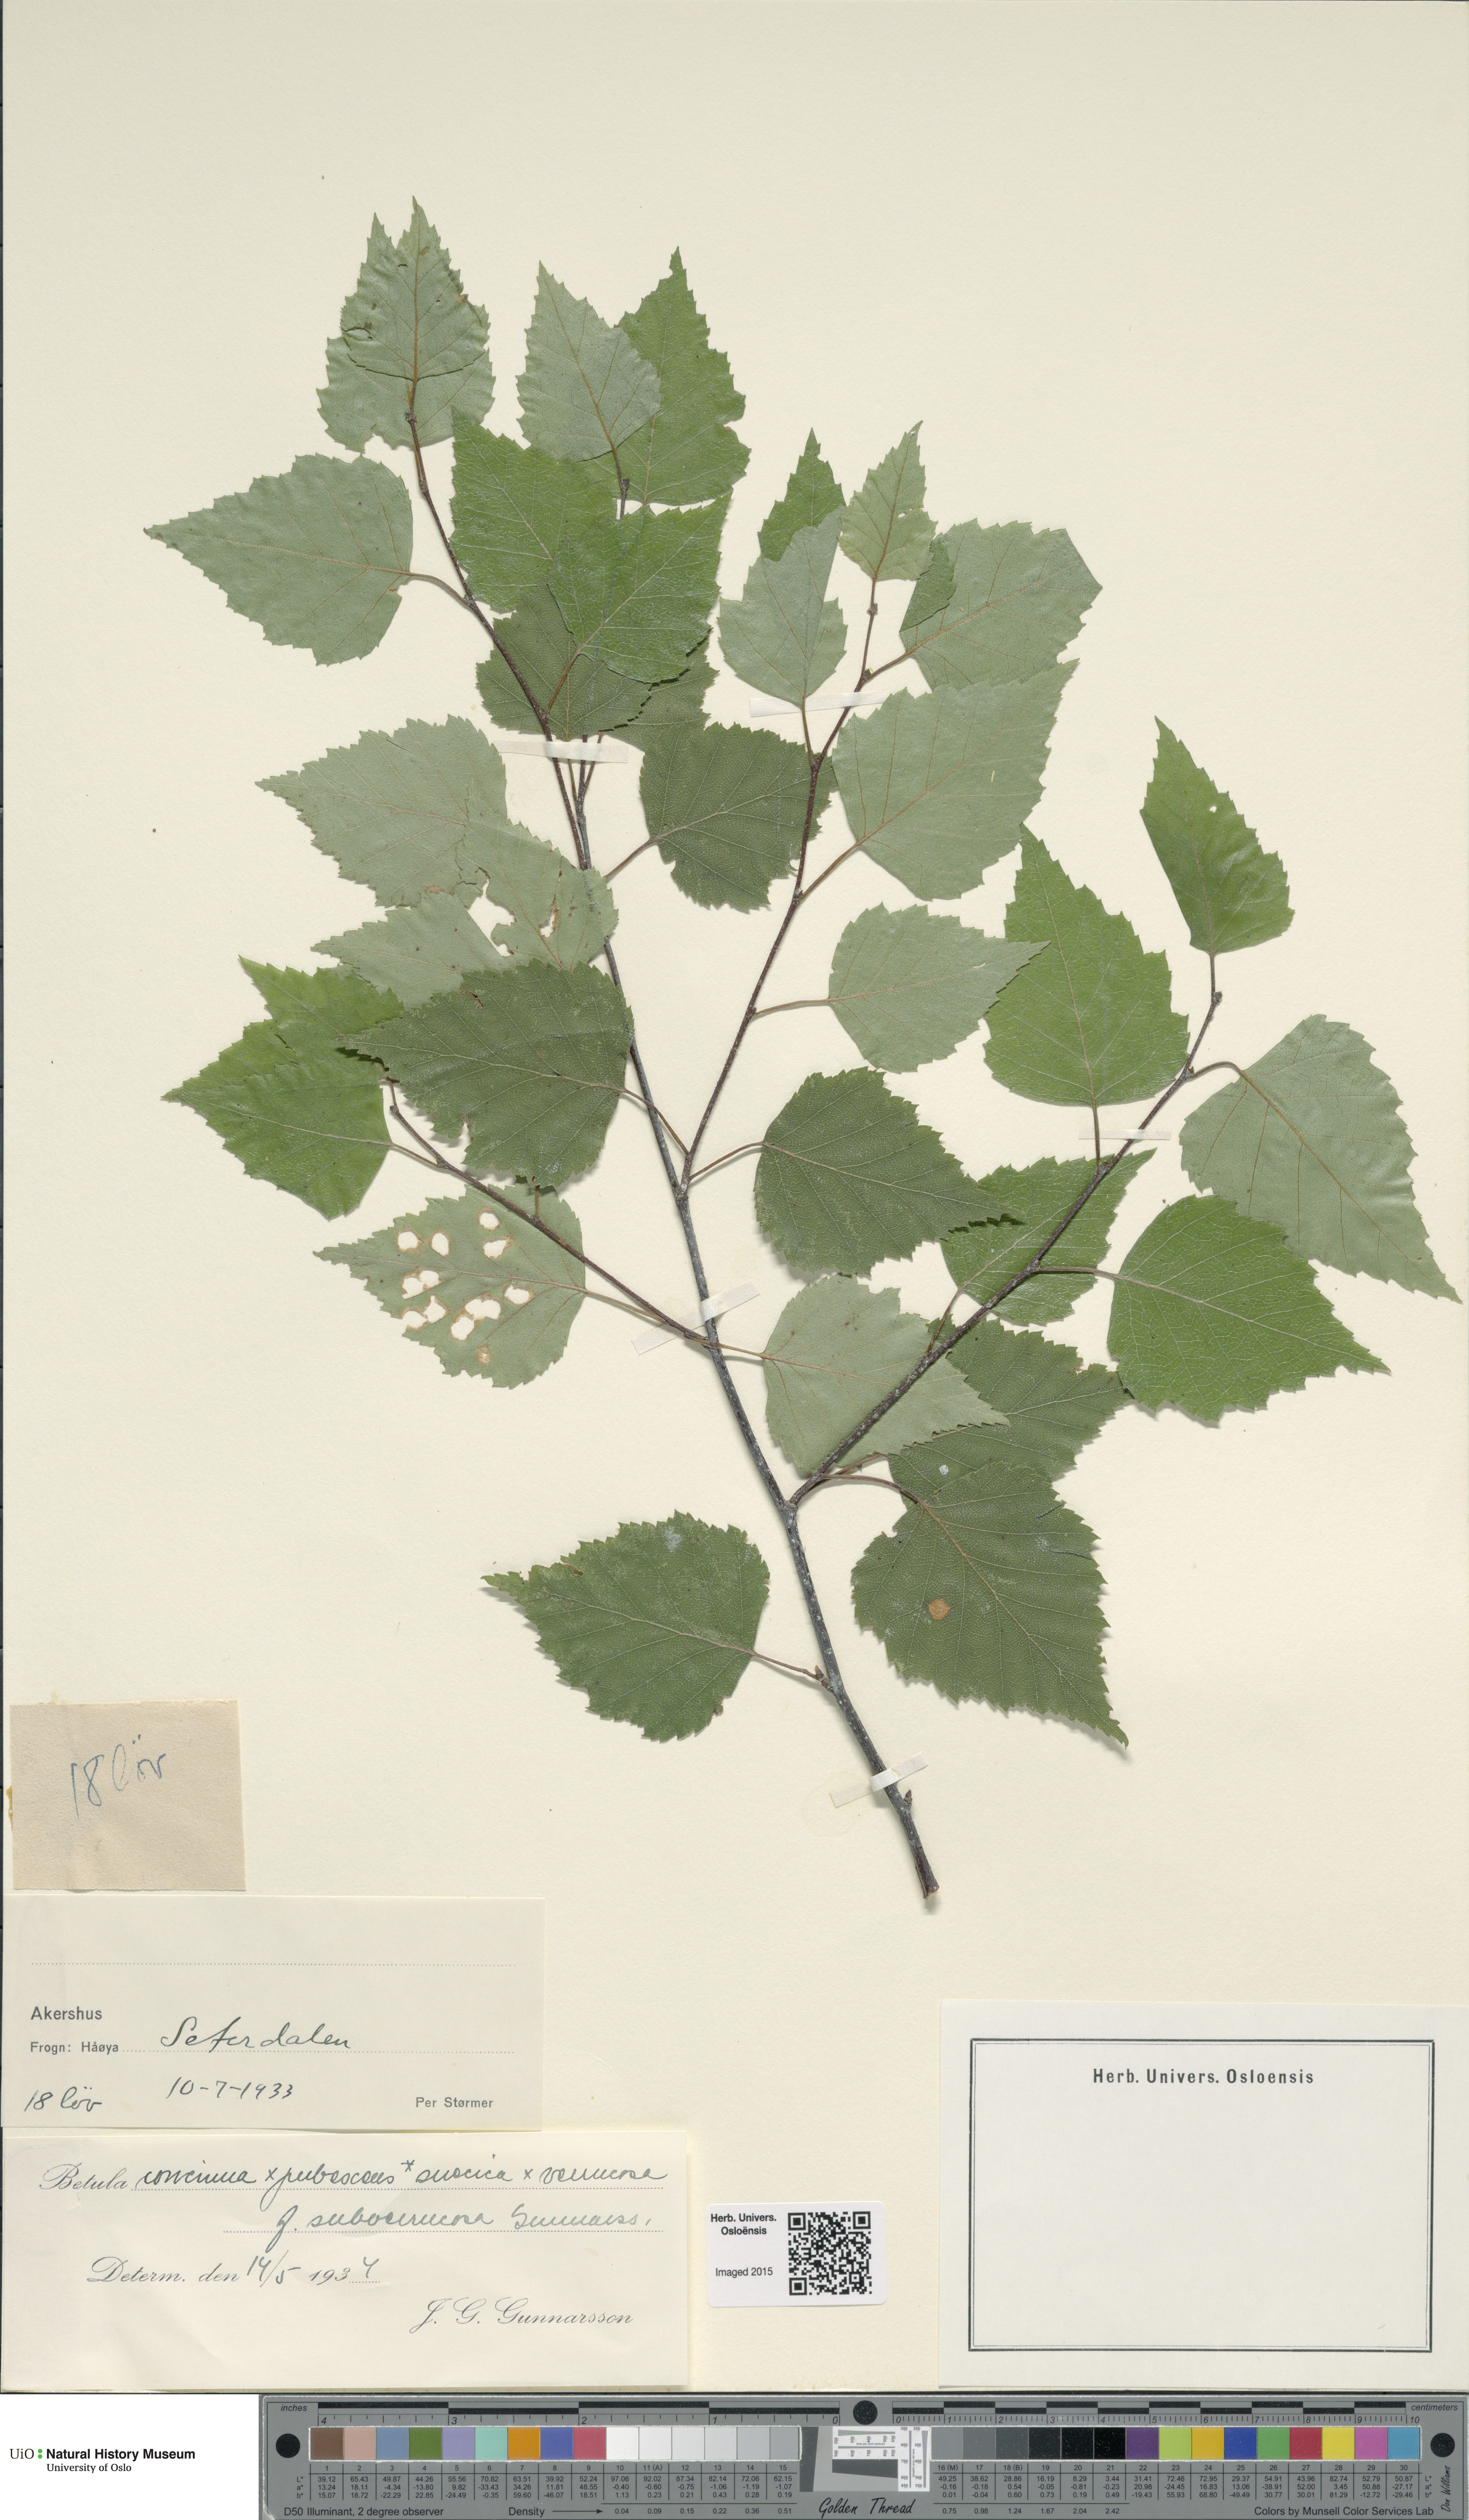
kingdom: Plantae
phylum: Tracheophyta
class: Magnoliopsida
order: Fagales
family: Betulaceae
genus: Betula
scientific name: Betula pubescens
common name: Downy birch
